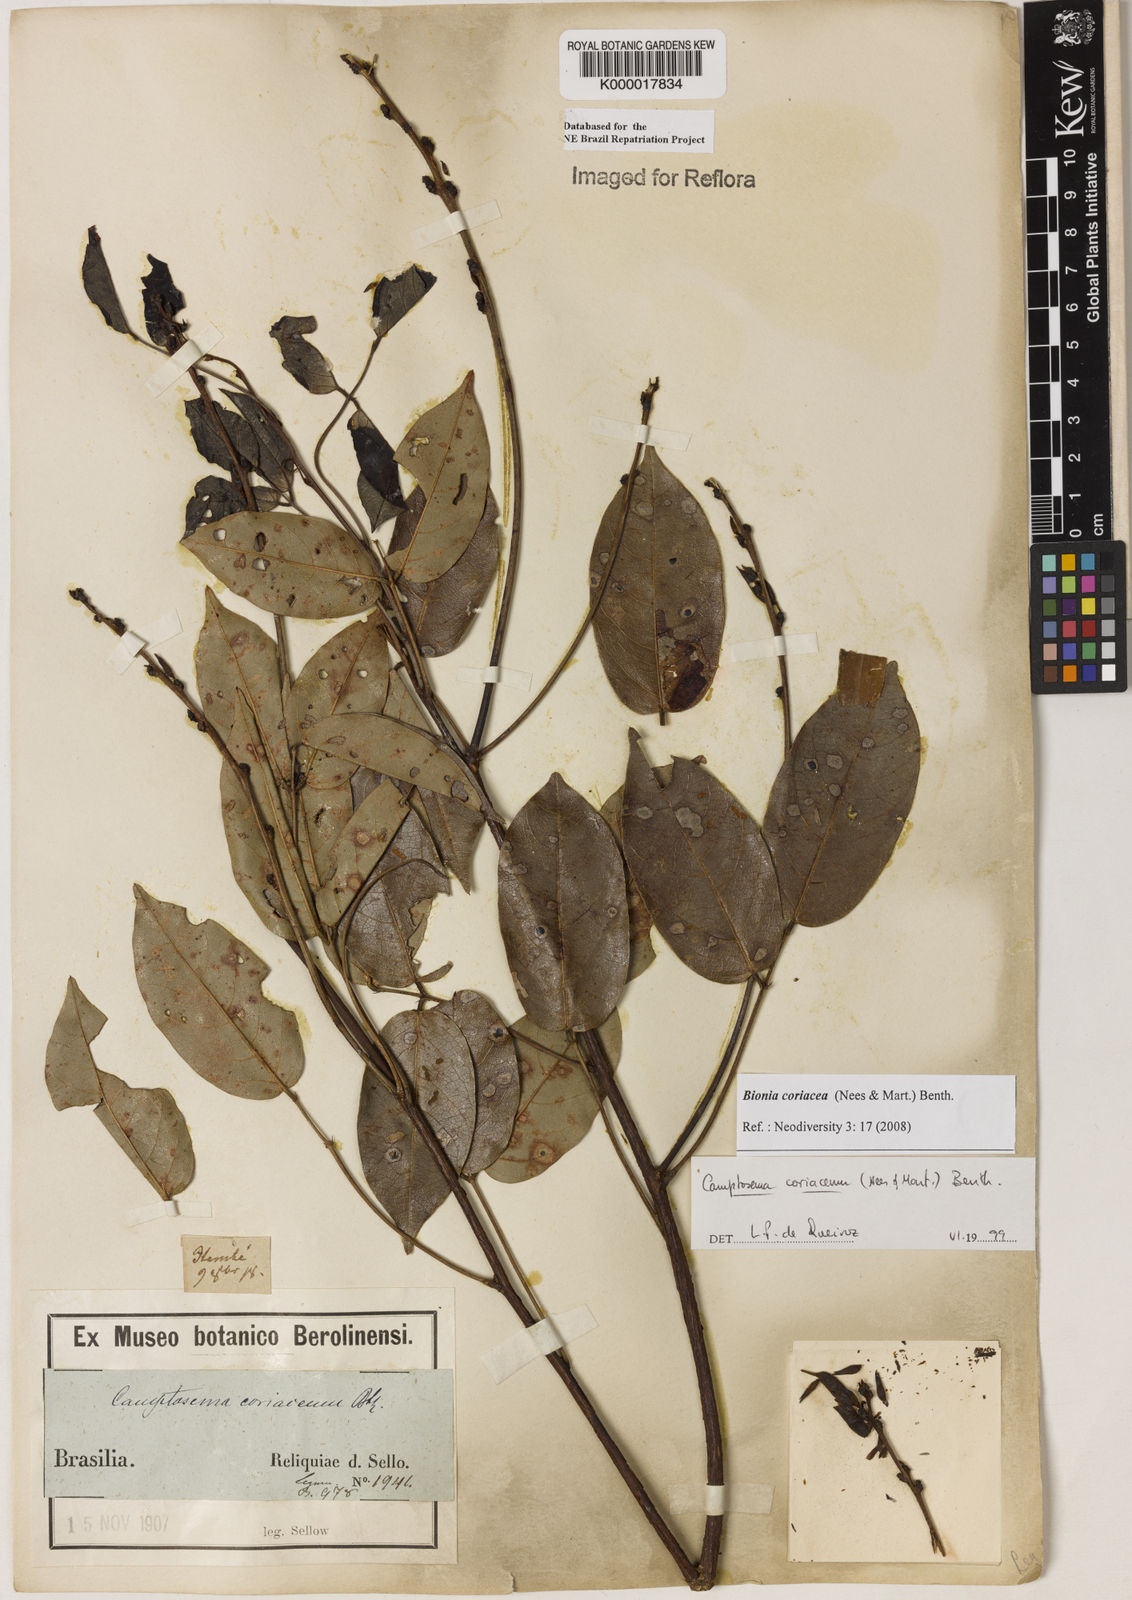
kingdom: Plantae
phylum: Tracheophyta
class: Magnoliopsida
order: Fabales
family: Fabaceae
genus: Camptosema
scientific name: Camptosema coriaceum
